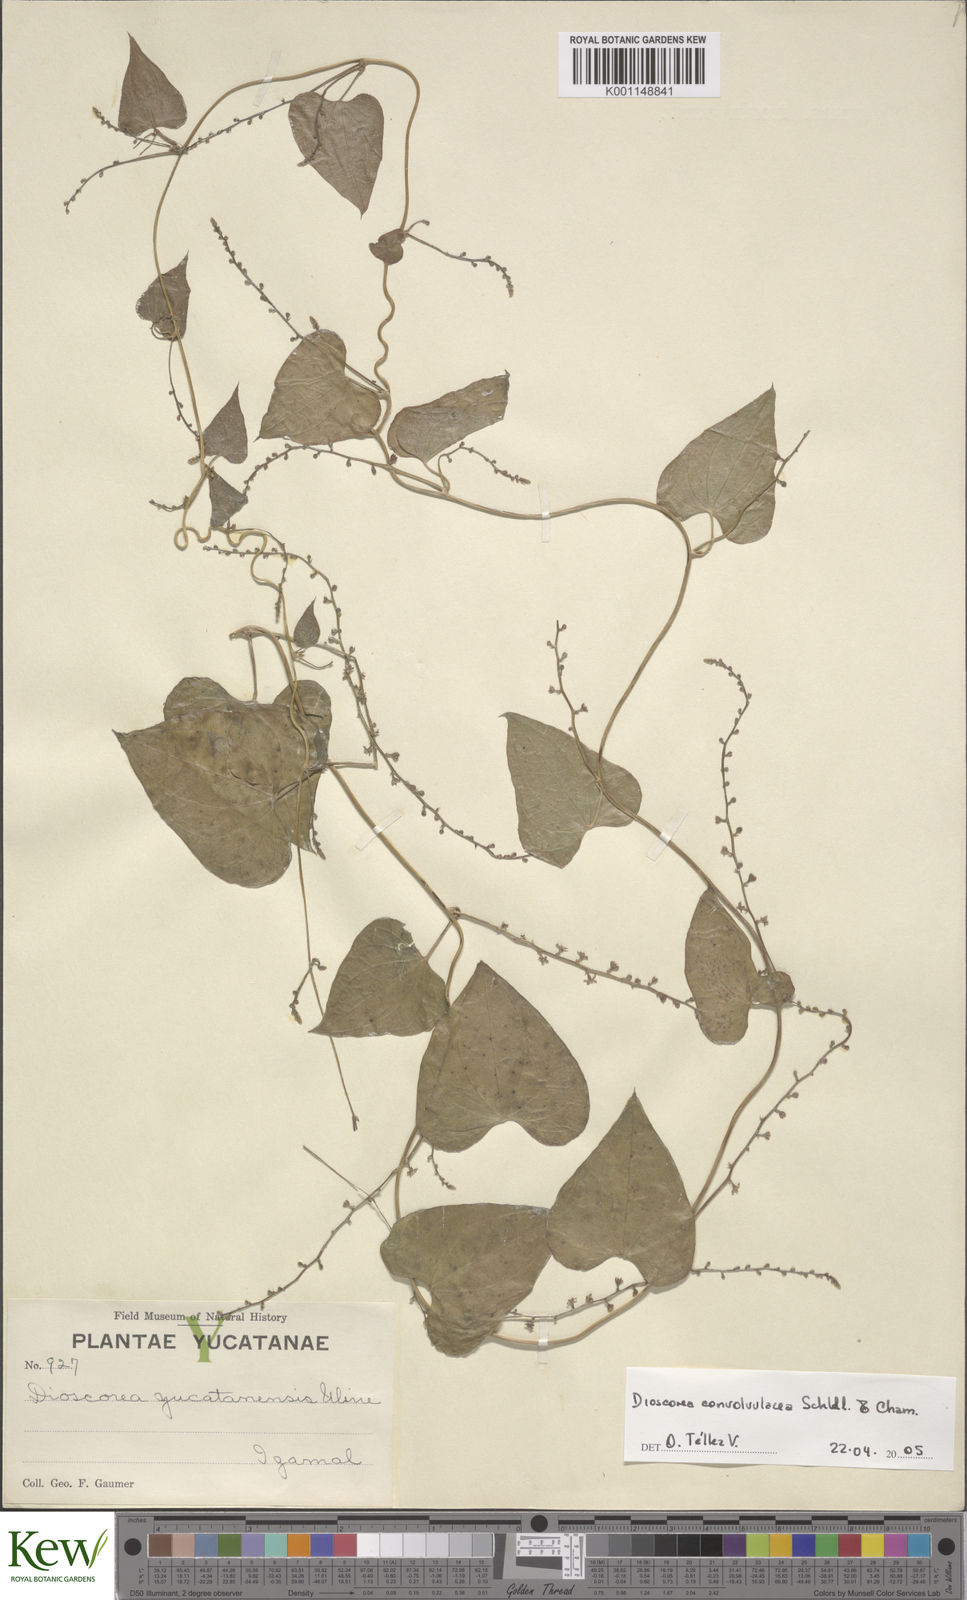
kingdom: Plantae
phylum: Tracheophyta
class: Liliopsida
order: Dioscoreales
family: Dioscoreaceae
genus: Dioscorea
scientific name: Dioscorea convolvulacea
